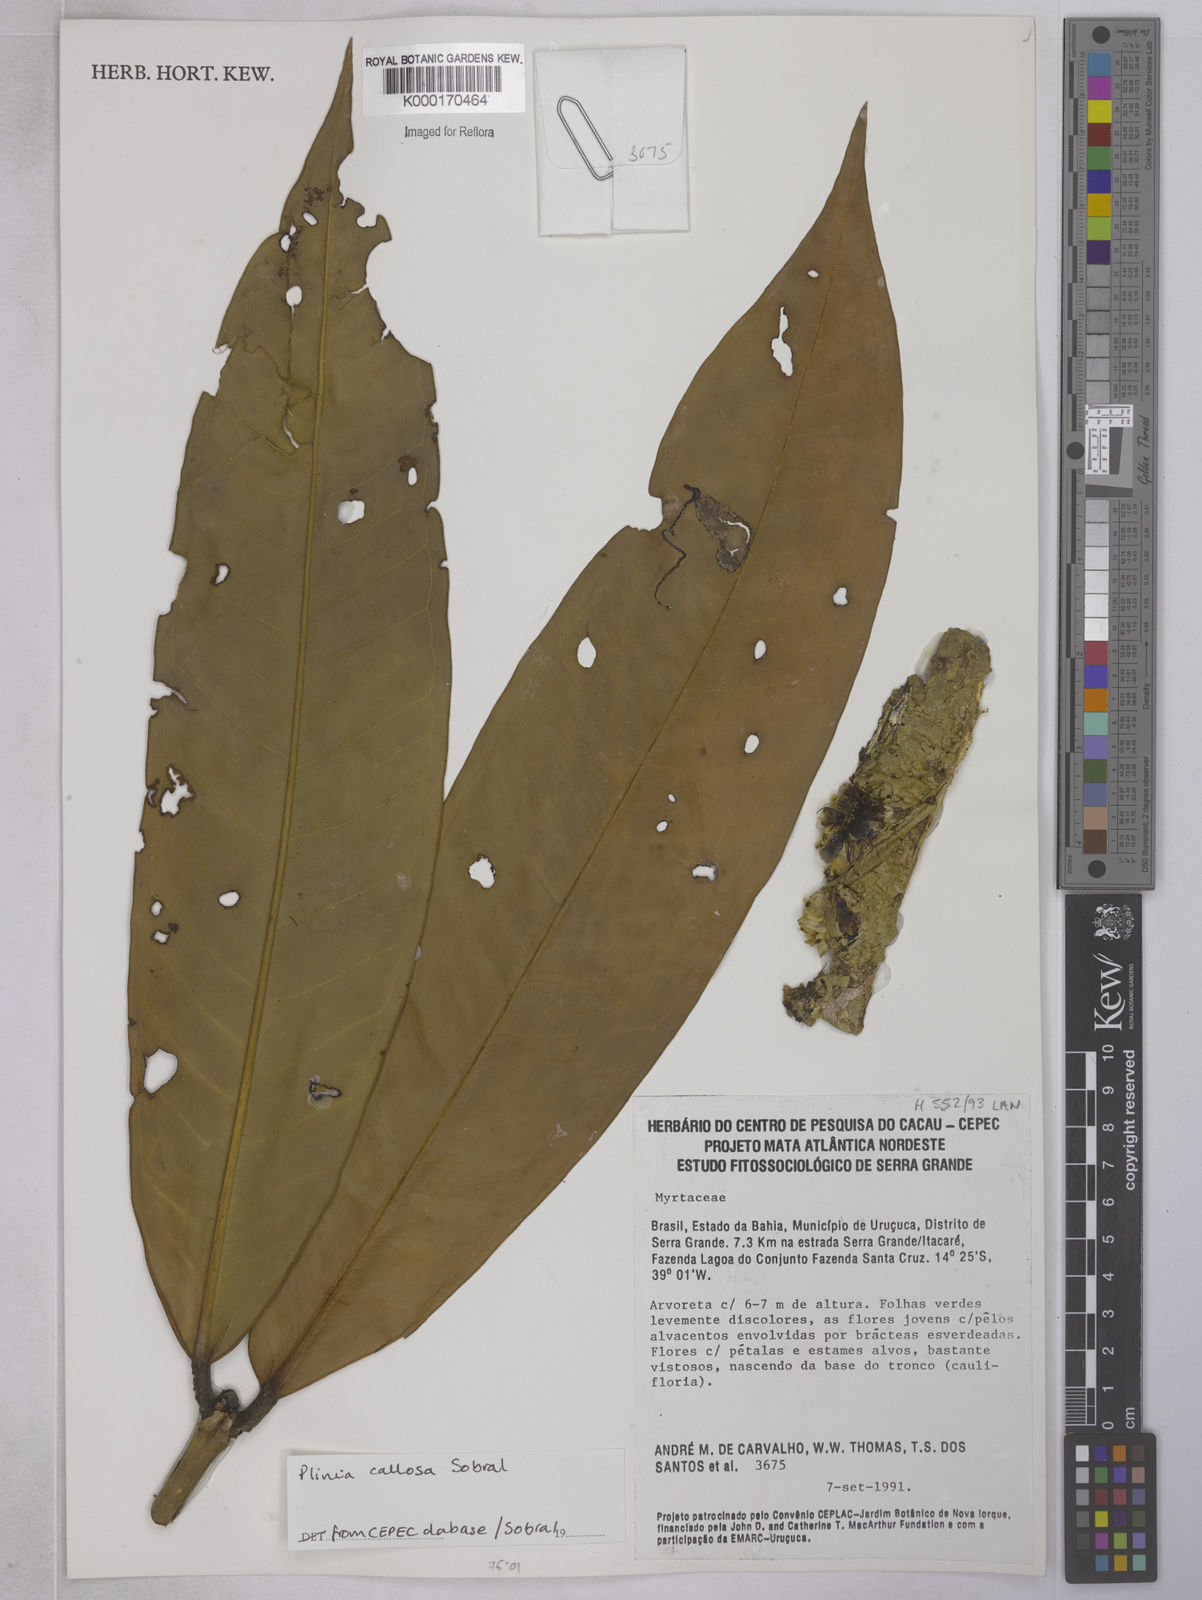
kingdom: Plantae
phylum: Tracheophyta
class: Magnoliopsida
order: Myrtales
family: Myrtaceae
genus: Plinia
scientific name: Plinia
